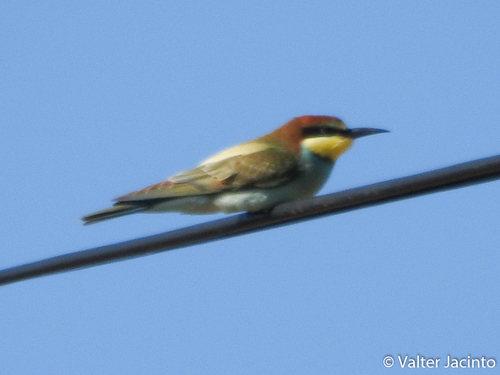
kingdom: Animalia
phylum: Chordata
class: Aves
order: Coraciiformes
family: Meropidae
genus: Merops
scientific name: Merops apiaster
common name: European bee-eater
